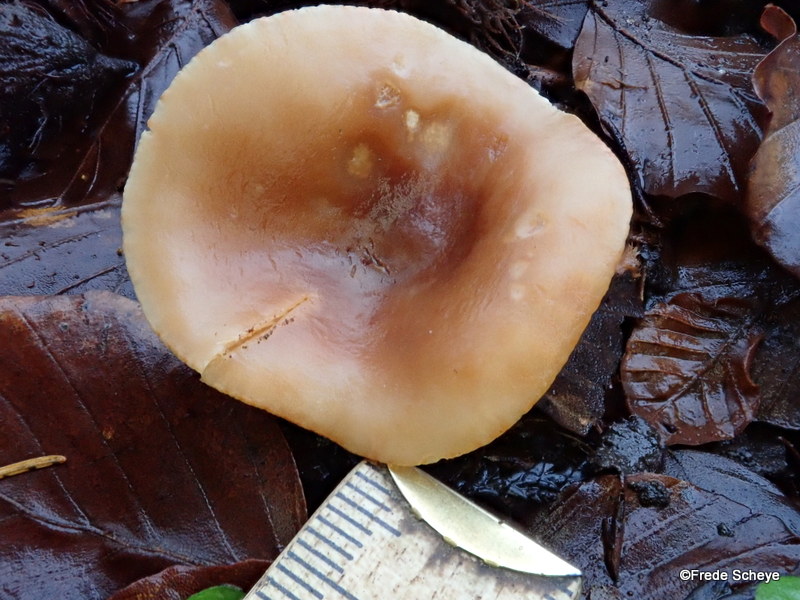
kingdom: Fungi
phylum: Basidiomycota
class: Agaricomycetes
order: Russulales
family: Russulaceae
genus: Lactarius
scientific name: Lactarius subdulcis
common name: sødlig mælkehat
